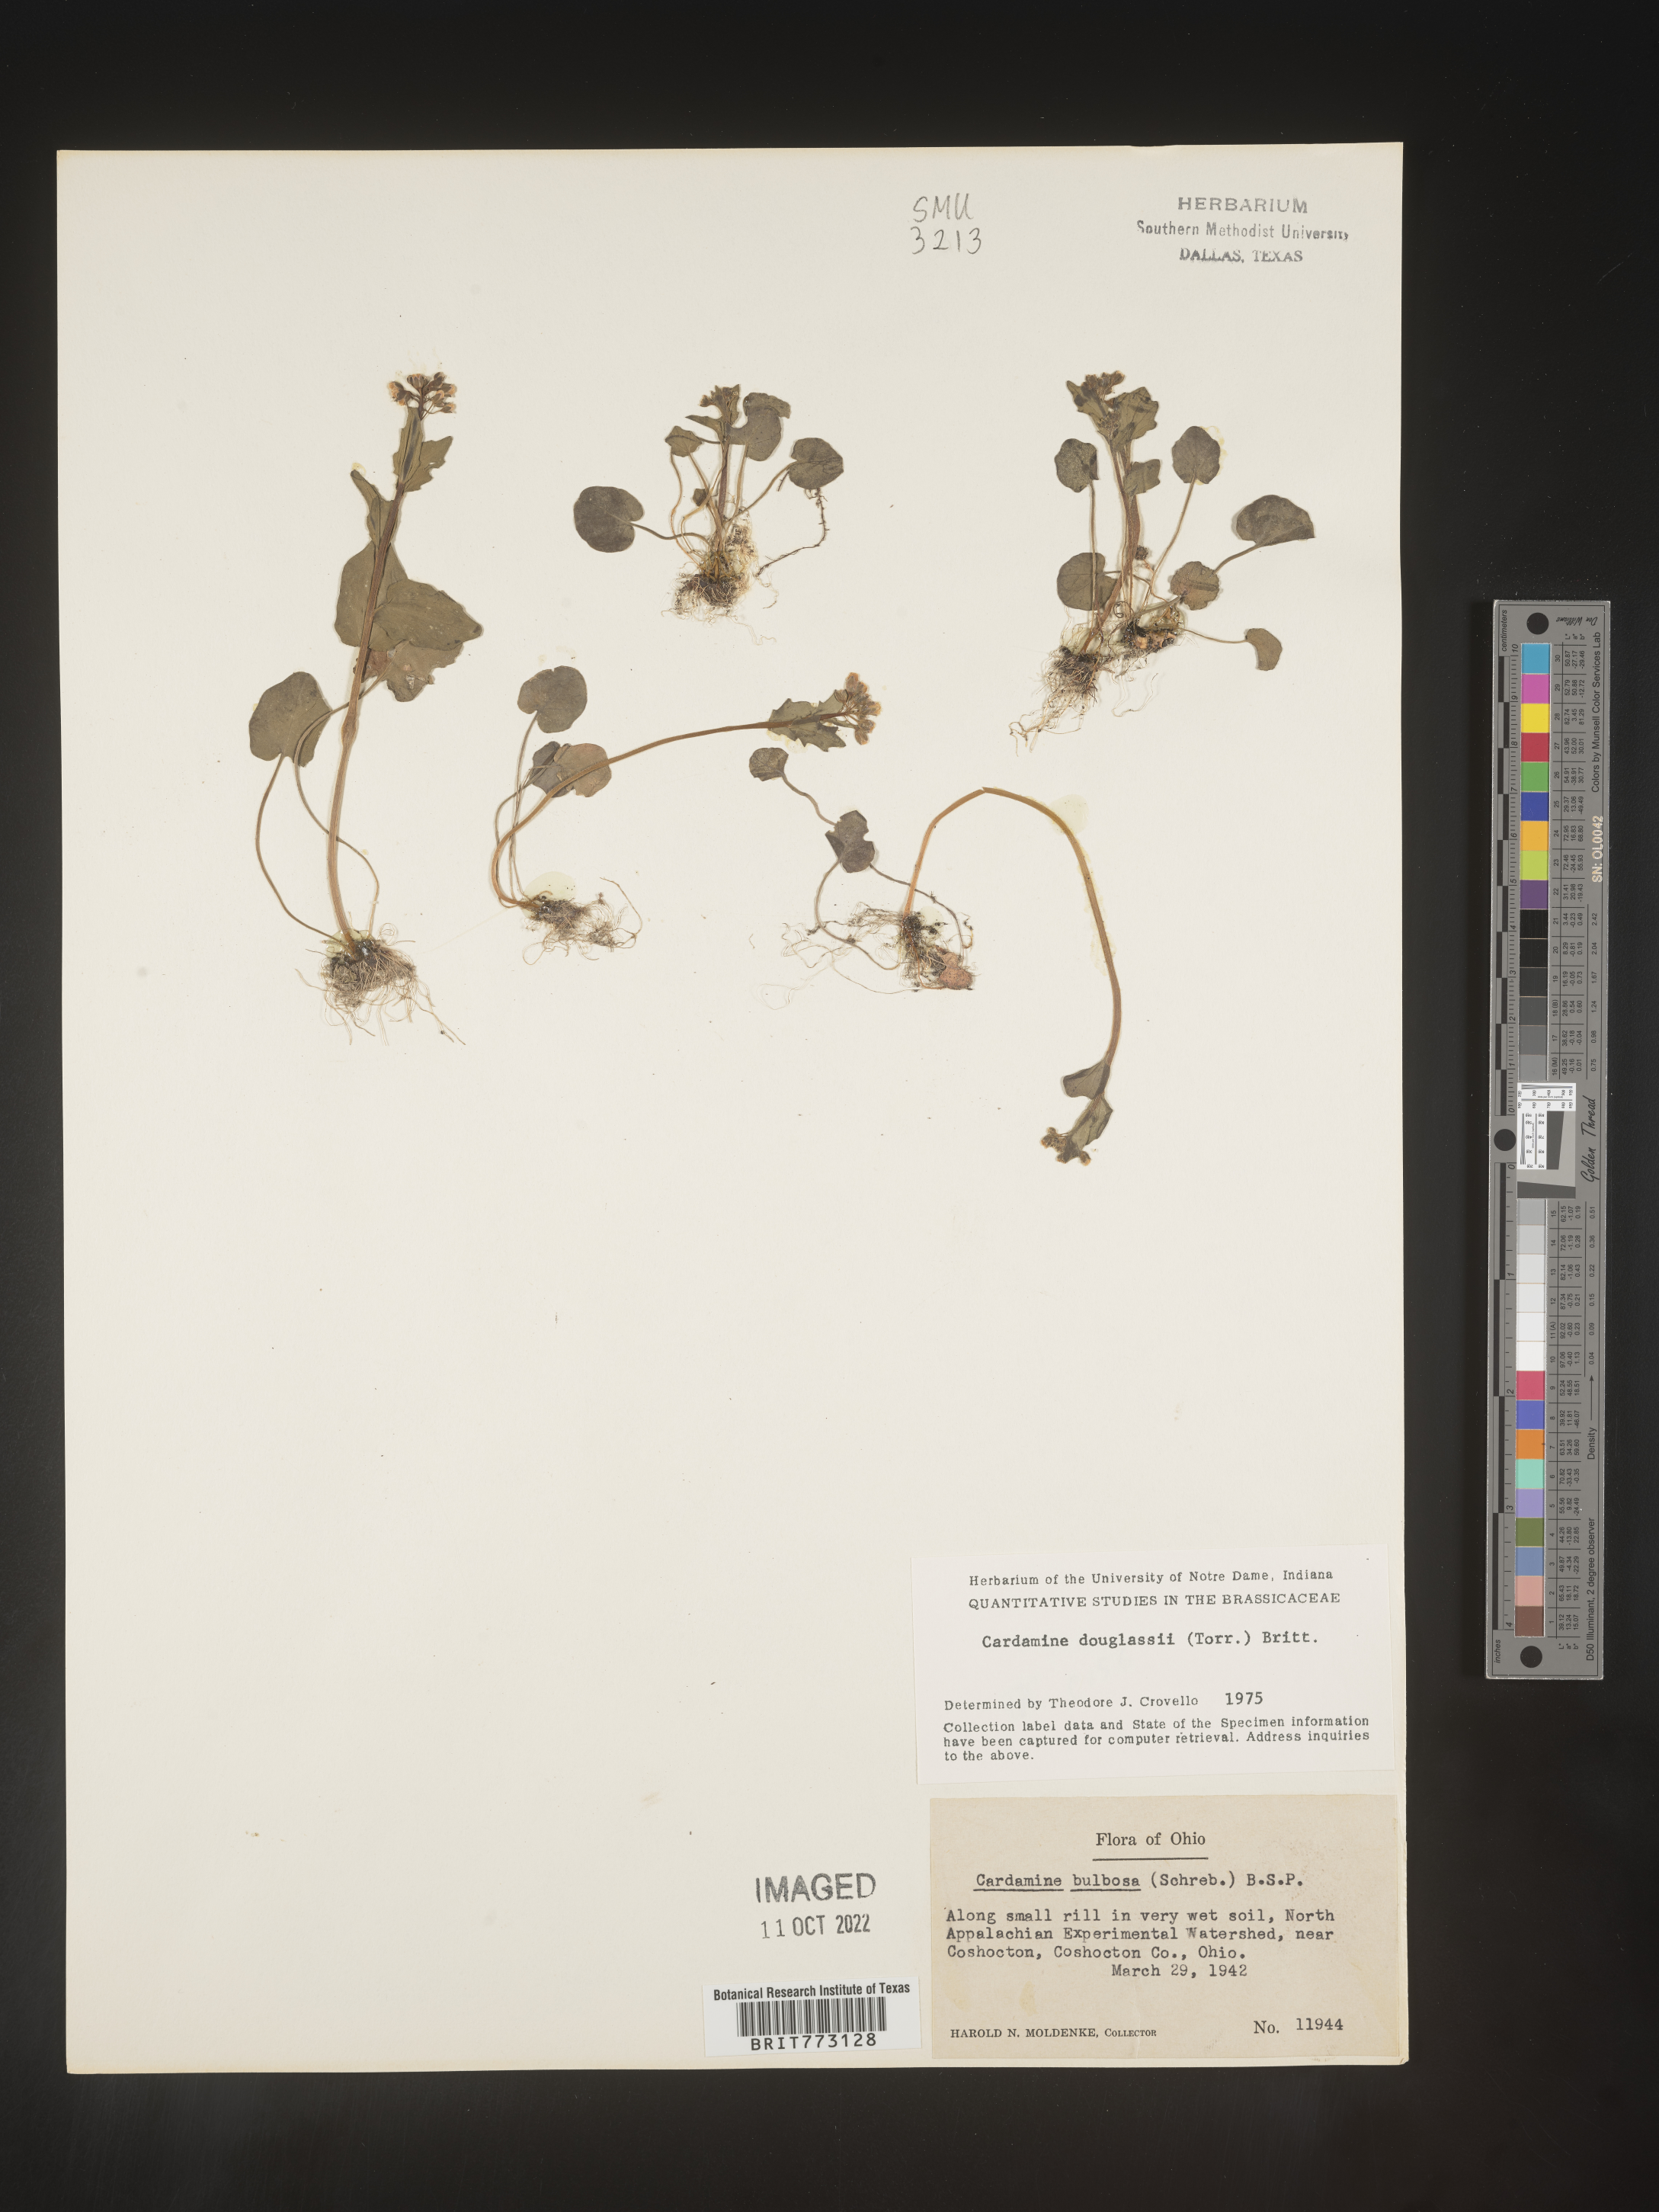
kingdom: Plantae
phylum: Tracheophyta
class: Magnoliopsida
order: Brassicales
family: Brassicaceae
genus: Cardamine
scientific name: Cardamine
